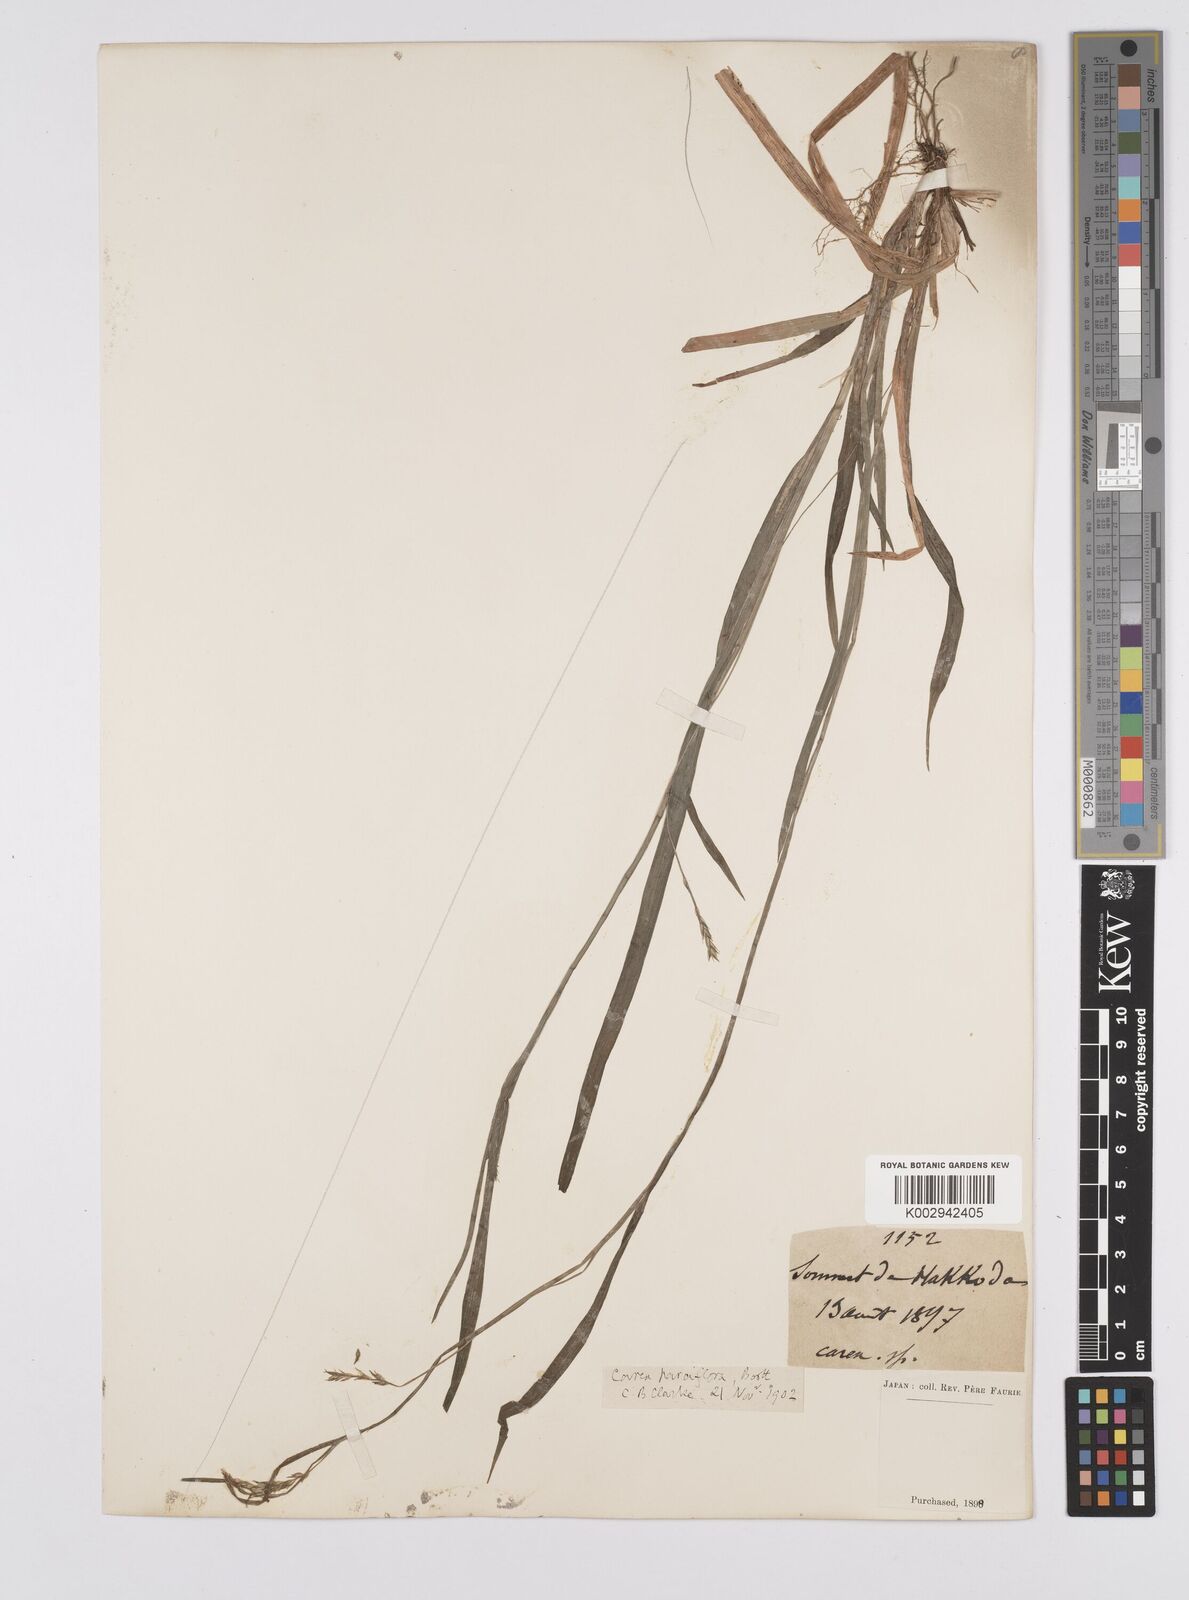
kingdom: Plantae
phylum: Tracheophyta
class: Liliopsida
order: Poales
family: Cyperaceae
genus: Carex
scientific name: Carex parciflora
